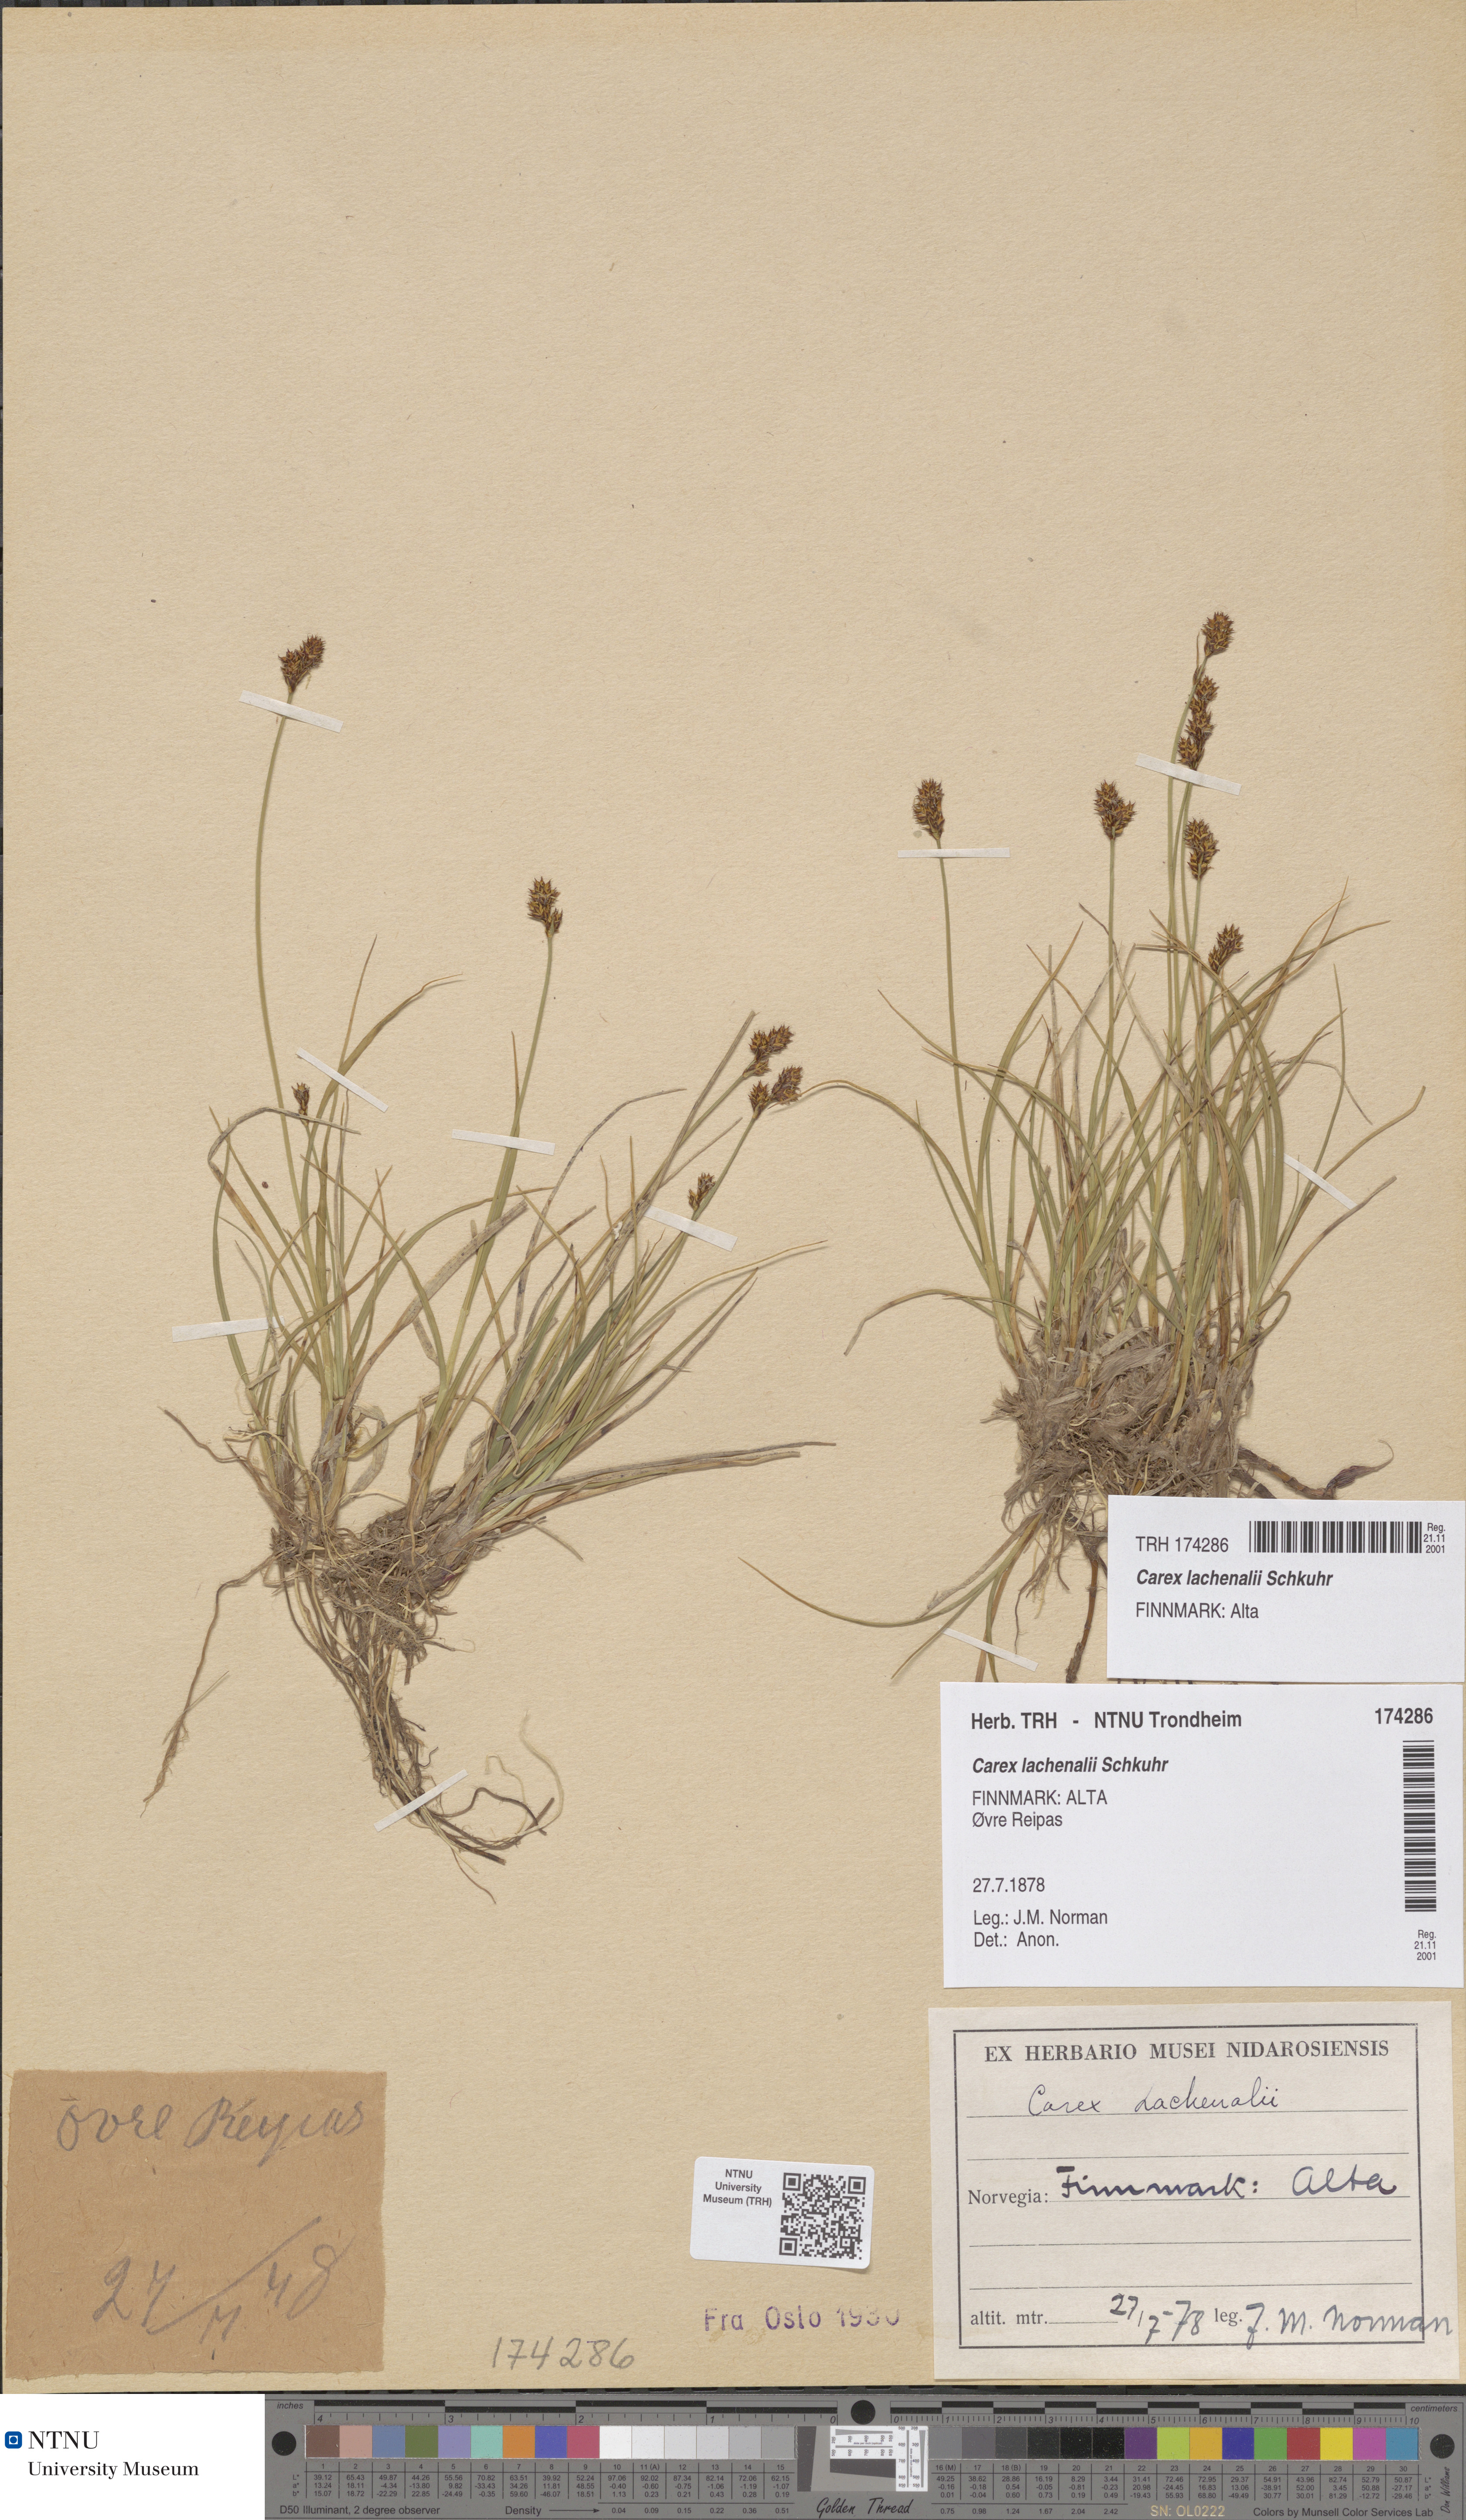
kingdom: Plantae
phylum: Tracheophyta
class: Liliopsida
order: Poales
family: Cyperaceae
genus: Carex
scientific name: Carex lachenalii
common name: Hare's-foot sedge
